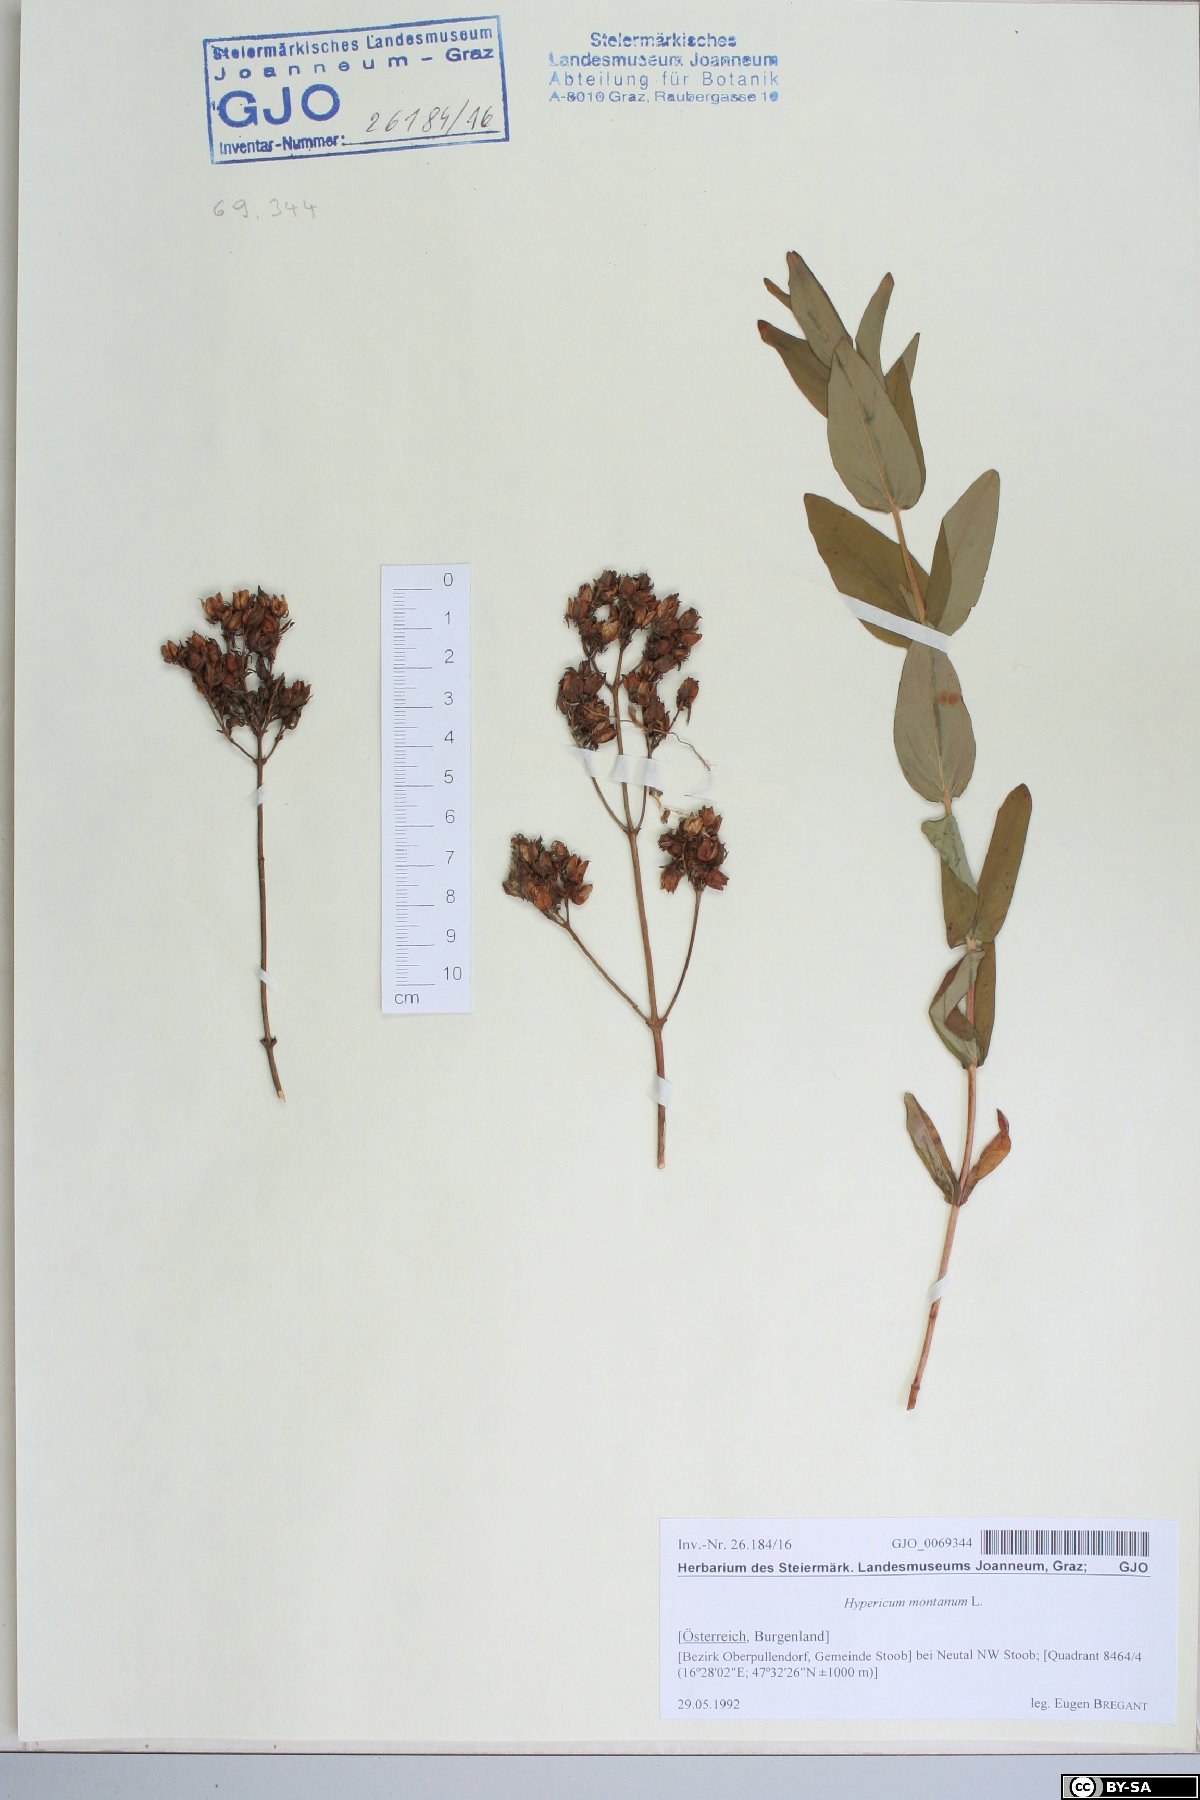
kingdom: Plantae
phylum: Tracheophyta
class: Magnoliopsida
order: Malpighiales
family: Hypericaceae
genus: Hypericum
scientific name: Hypericum montanum
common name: Pale st. john's-wort
